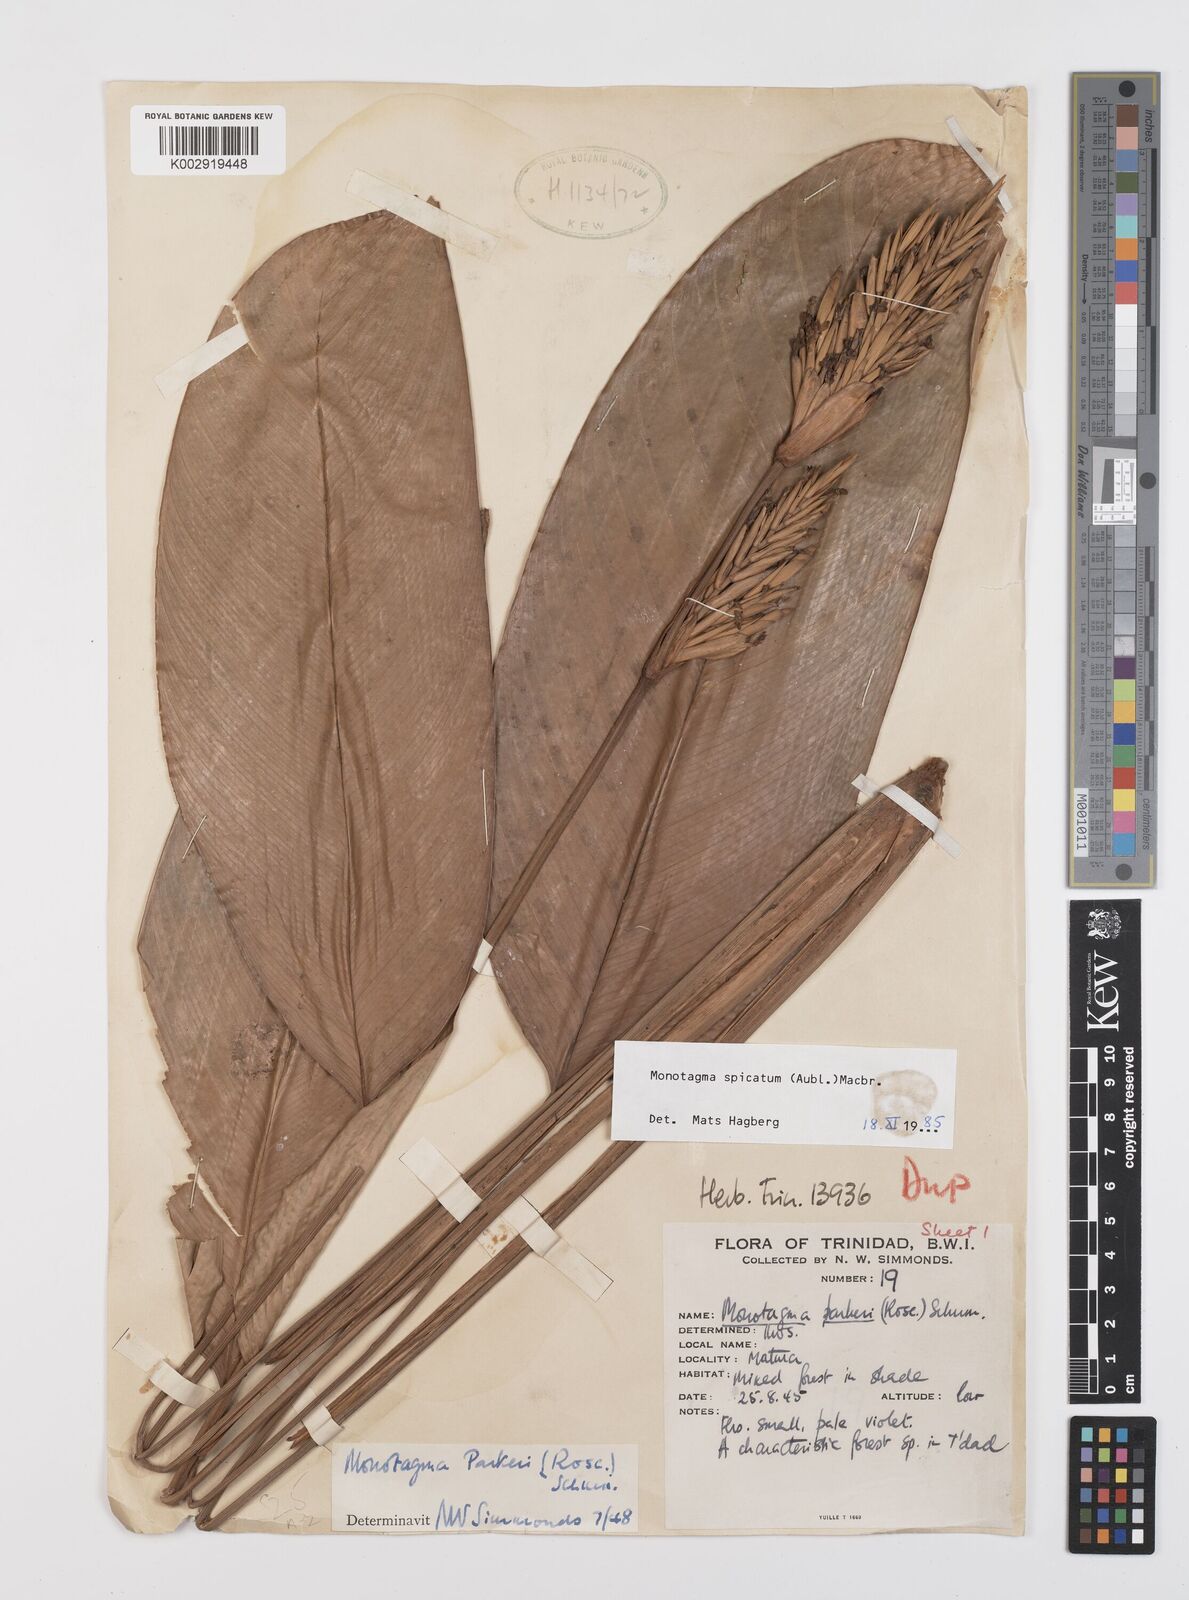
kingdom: Plantae
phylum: Tracheophyta
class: Liliopsida
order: Zingiberales
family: Marantaceae
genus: Monotagma
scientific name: Monotagma spicatum
